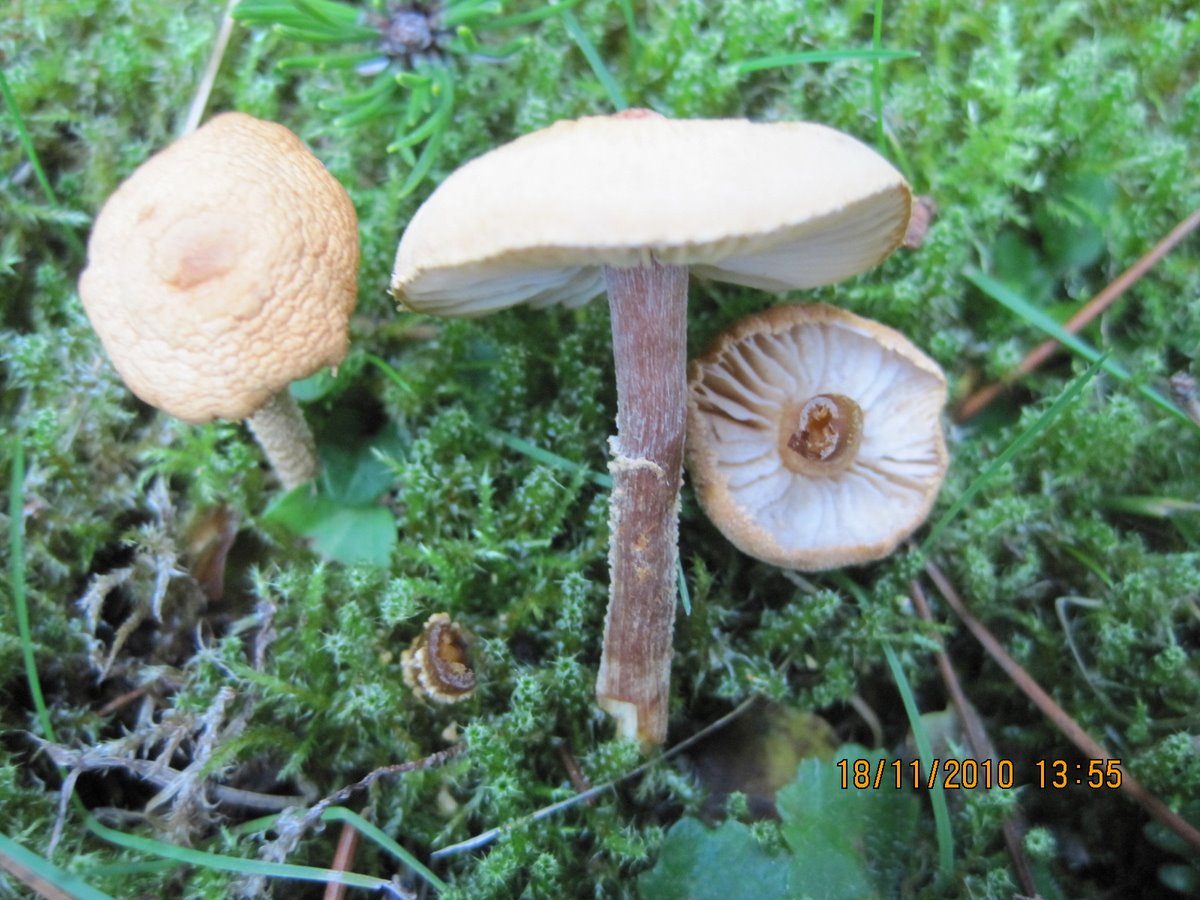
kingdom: Fungi
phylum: Basidiomycota
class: Agaricomycetes
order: Agaricales
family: Tricholomataceae
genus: Cystoderma
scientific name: Cystoderma amianthinum
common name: okkergul grynhat
